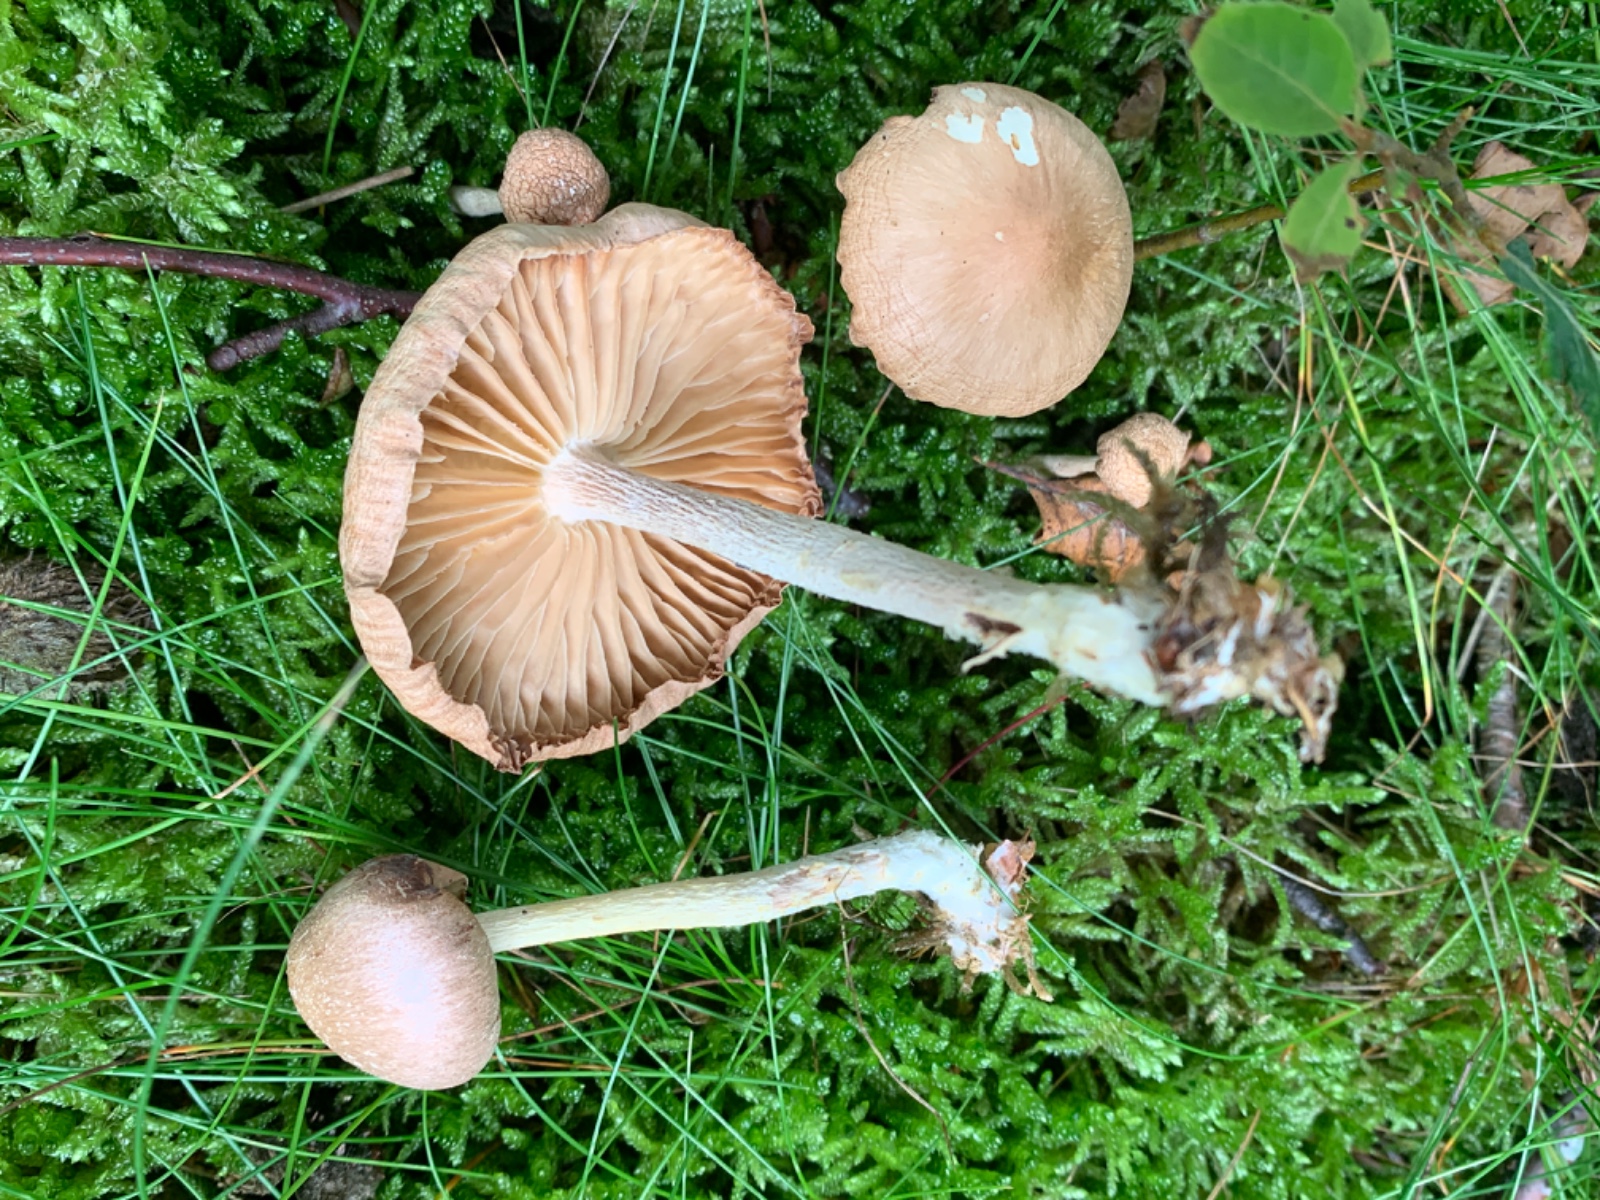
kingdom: Fungi
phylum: Basidiomycota
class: Agaricomycetes
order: Agaricales
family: Omphalotaceae
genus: Collybiopsis
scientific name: Collybiopsis peronata
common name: bestøvlet fladhat
